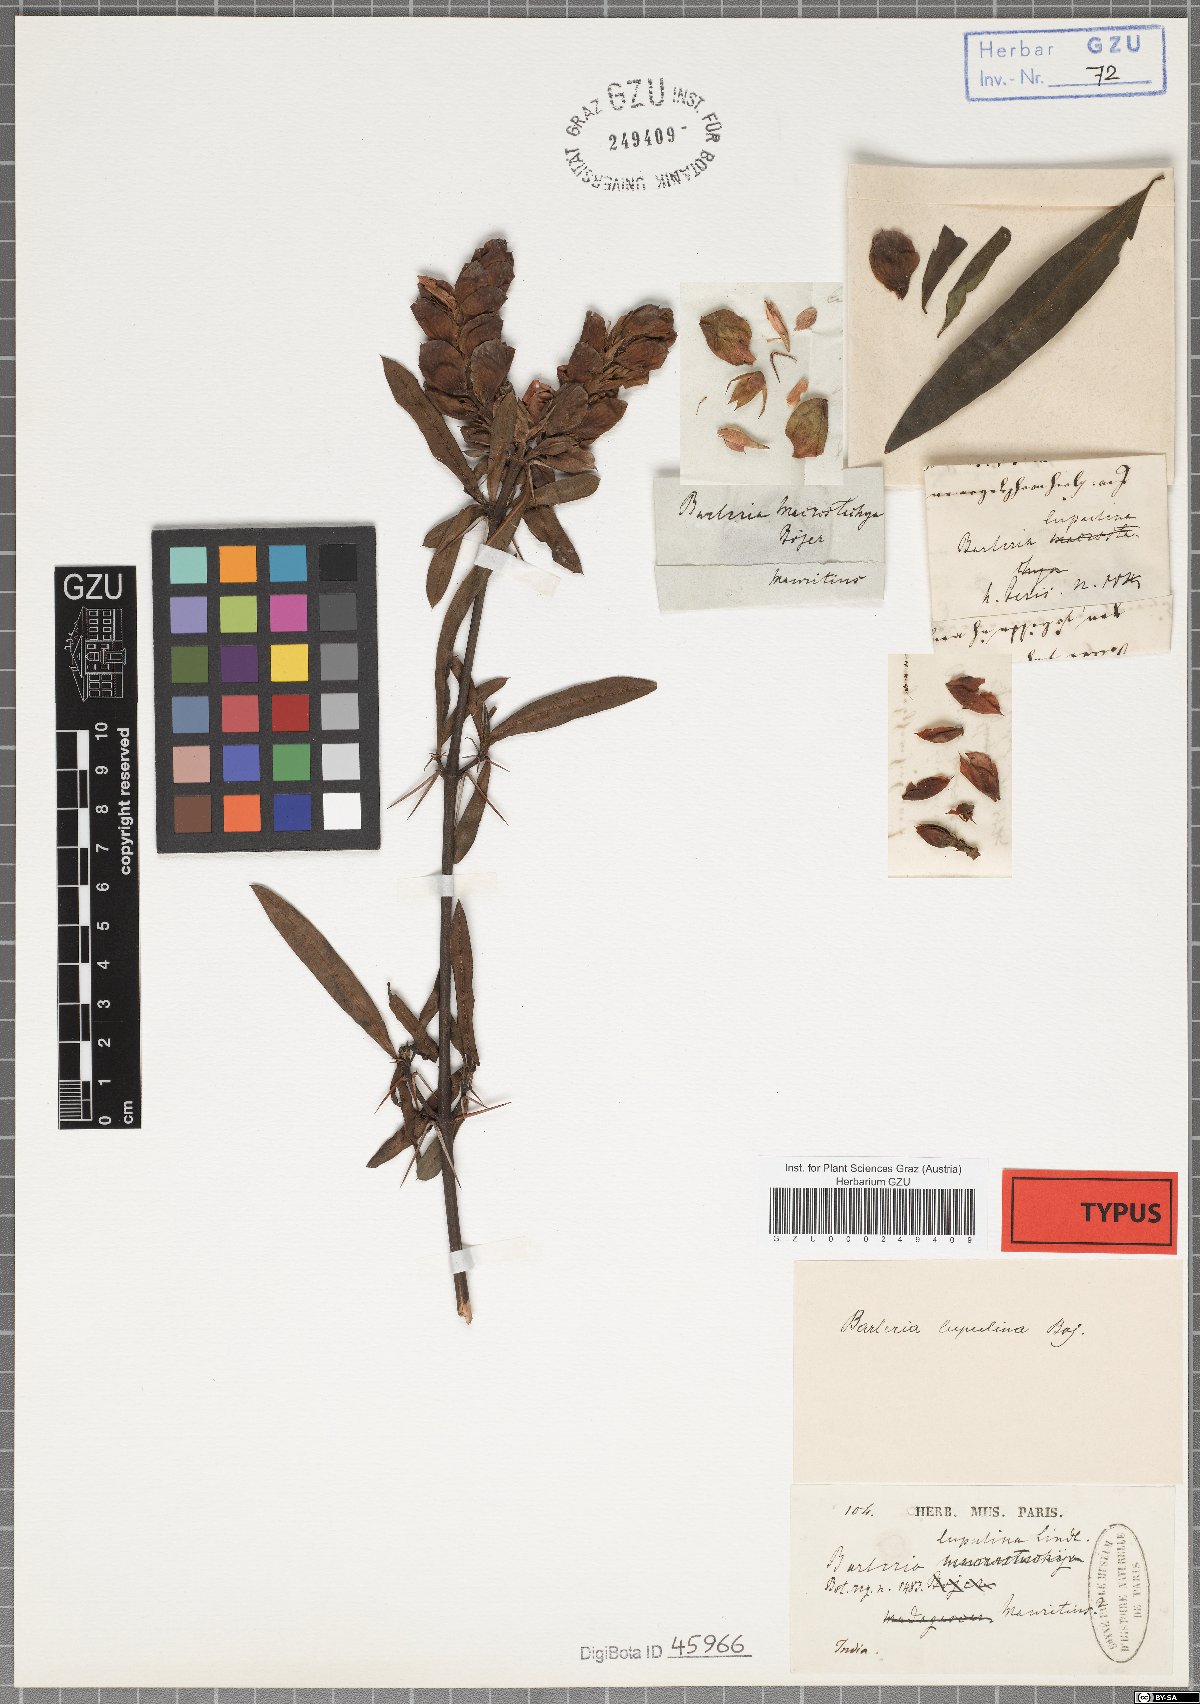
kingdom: Plantae
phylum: Tracheophyta
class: Magnoliopsida
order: Lamiales
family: Acanthaceae
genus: Barleria
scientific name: Barleria lupulina
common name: Hophead philippine violet
